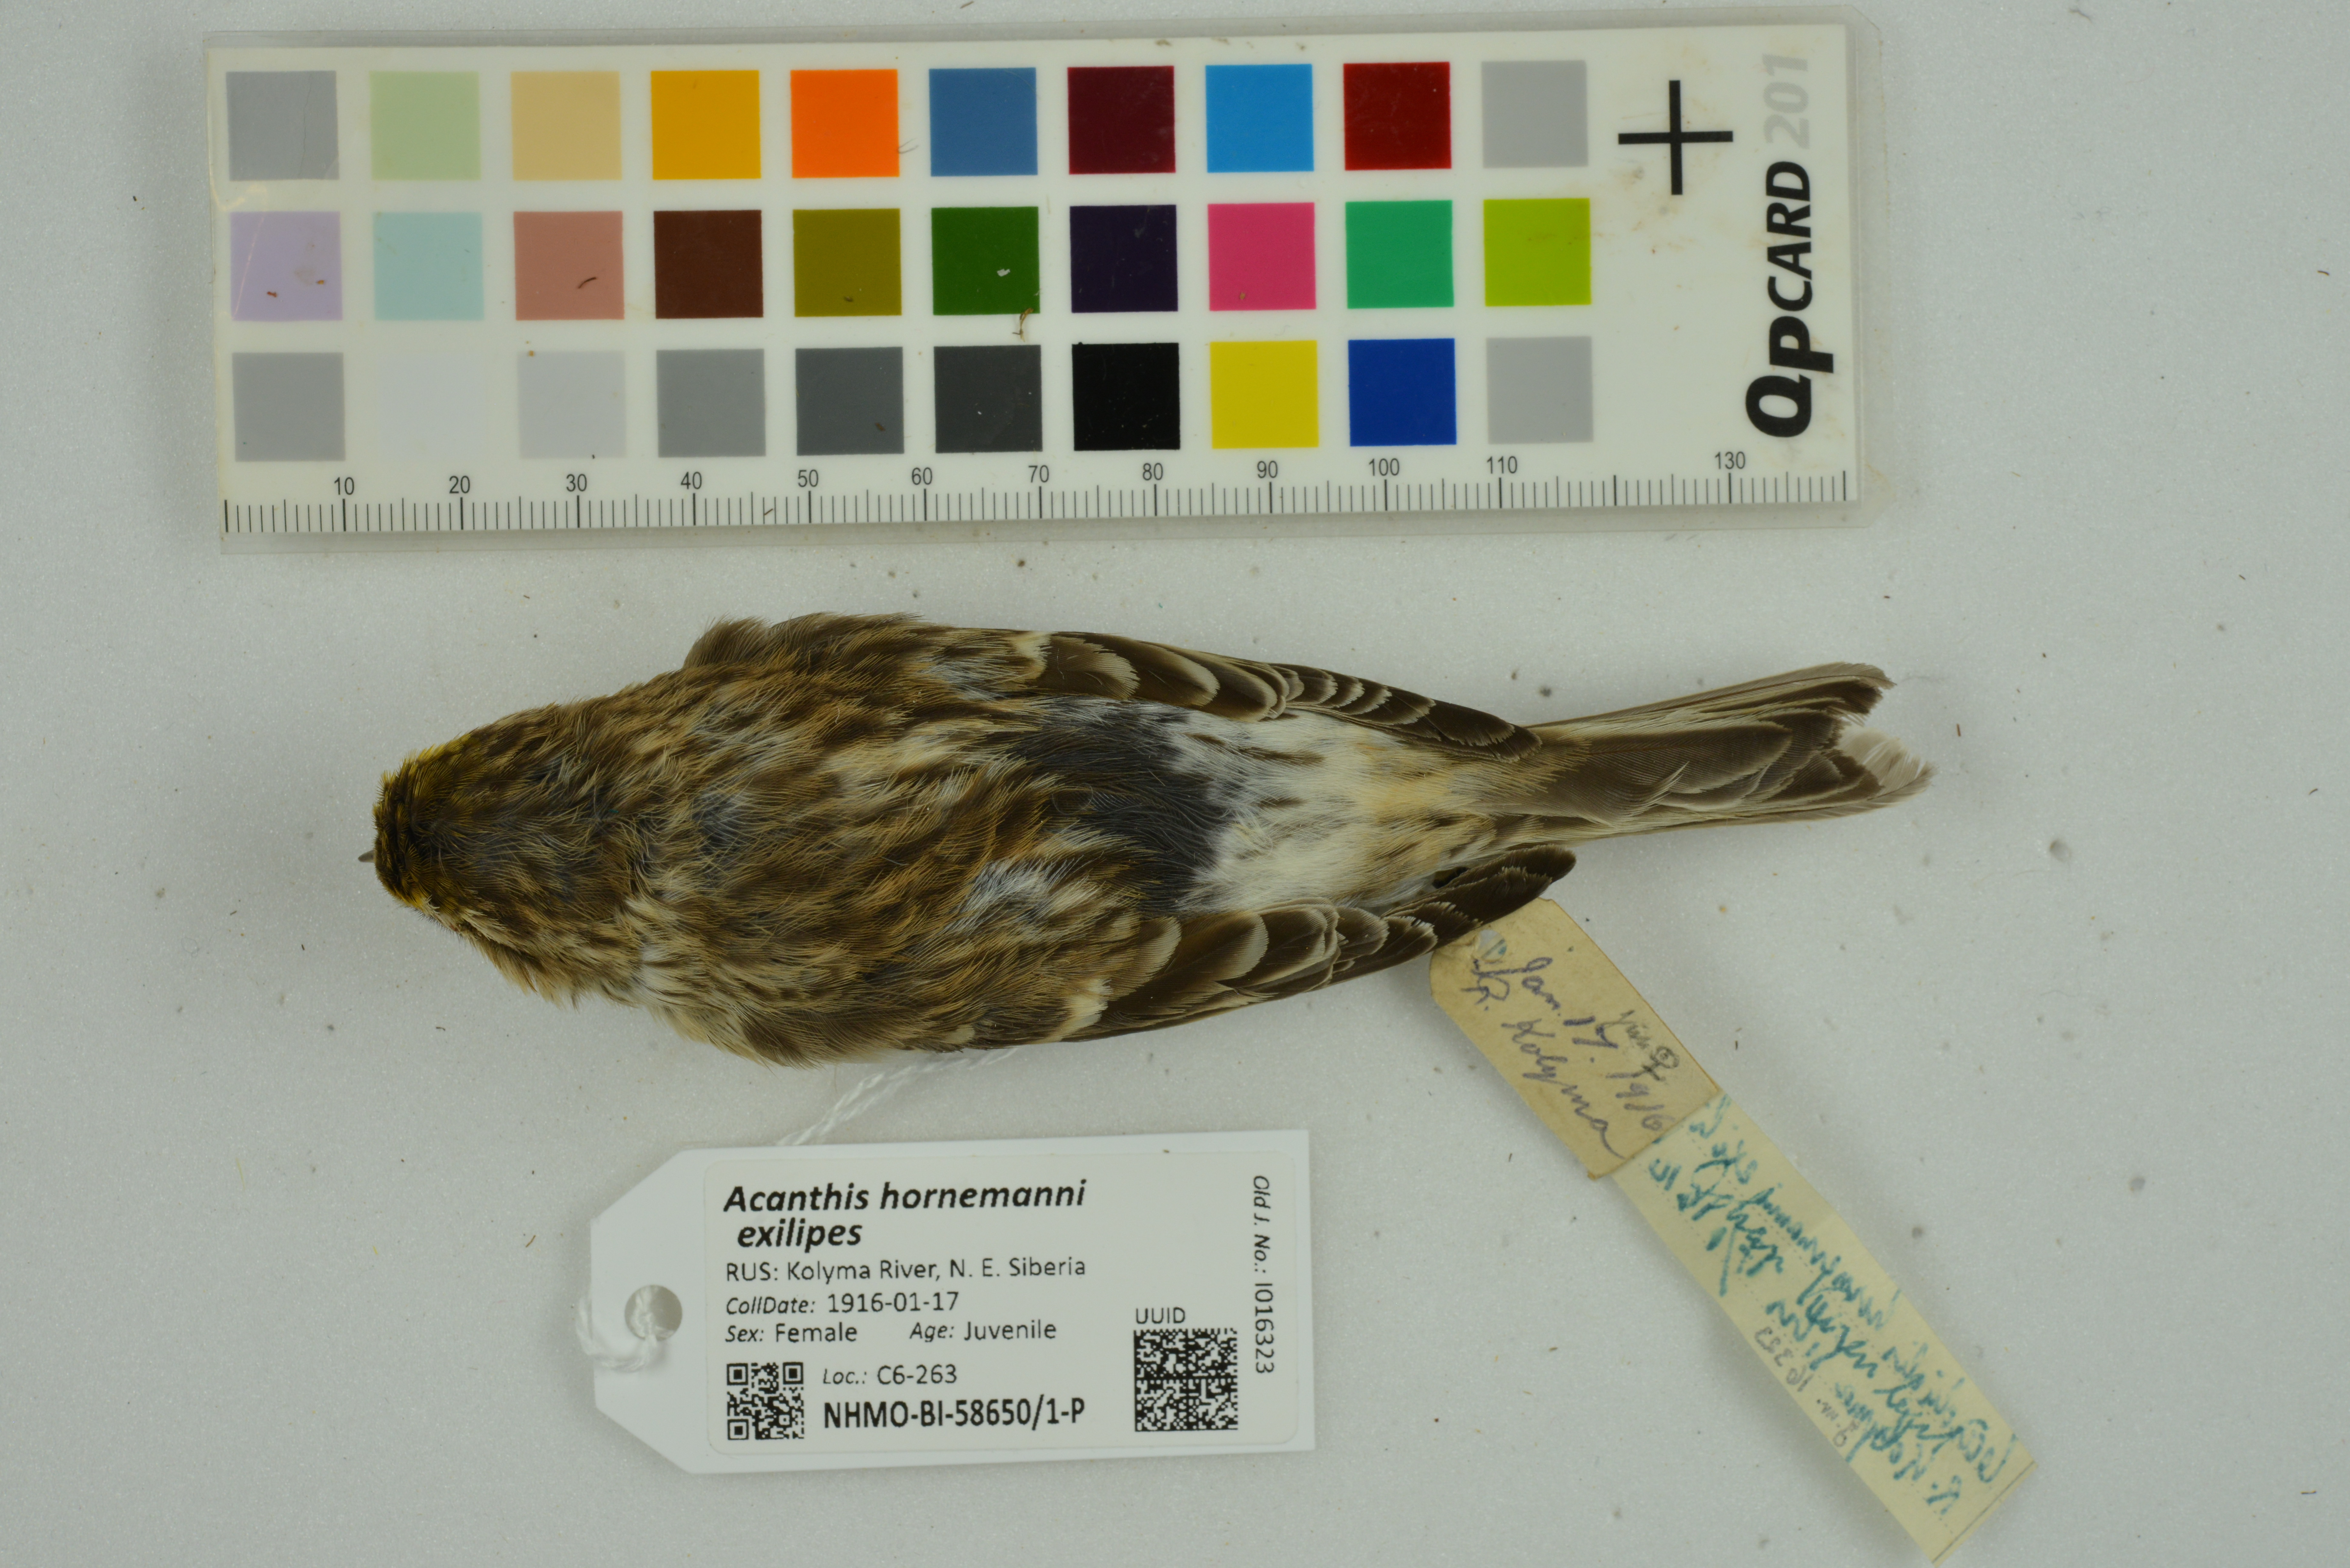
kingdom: Animalia
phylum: Chordata
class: Aves
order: Passeriformes
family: Fringillidae
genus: Acanthis
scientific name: Acanthis hornemanni
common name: Arctic redpoll
